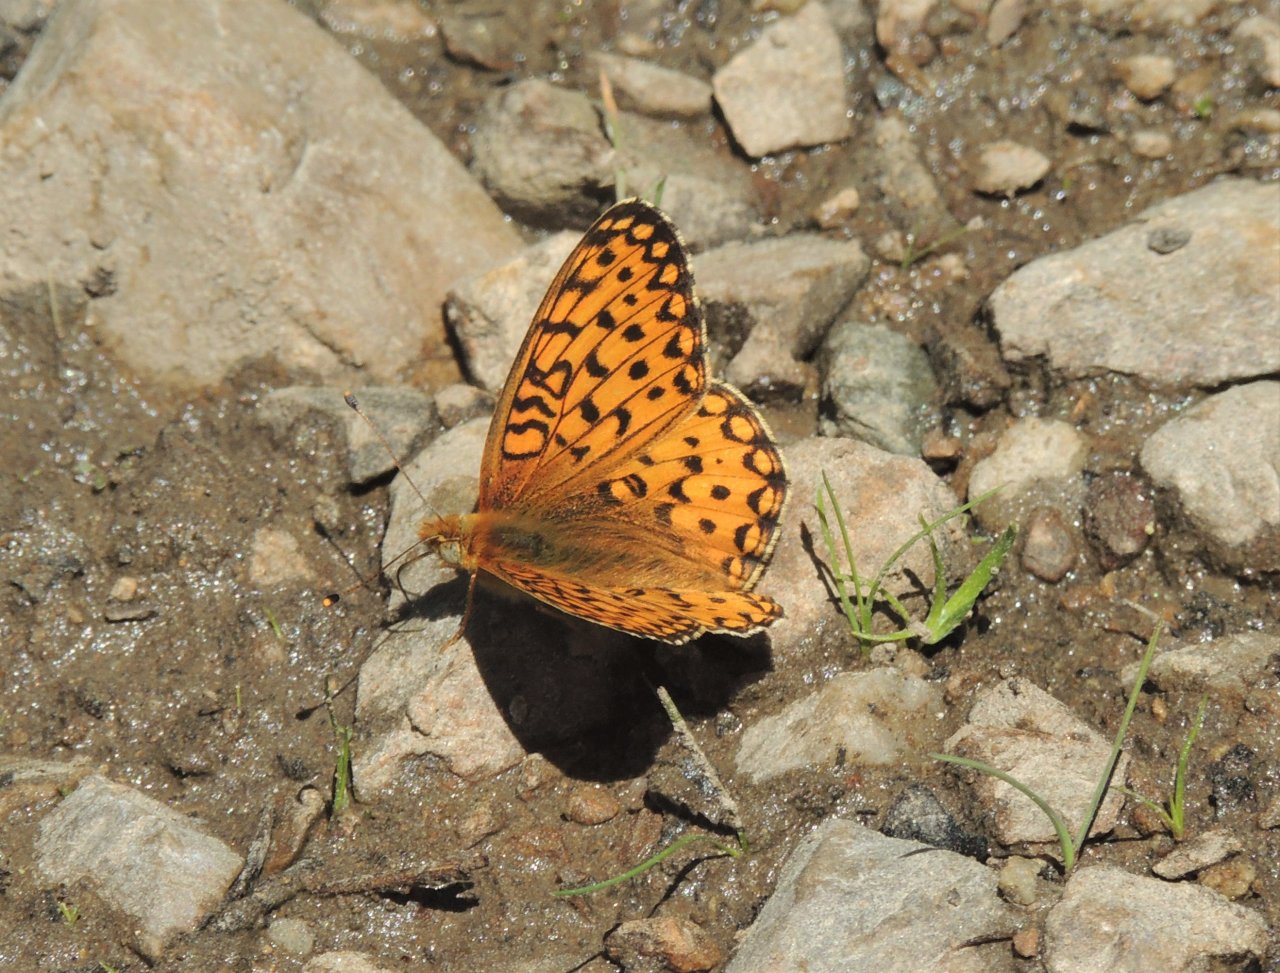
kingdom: Animalia
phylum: Arthropoda
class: Insecta
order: Lepidoptera
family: Nymphalidae
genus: Speyeria
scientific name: Speyeria mormonia
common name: Mormon Fritillary
